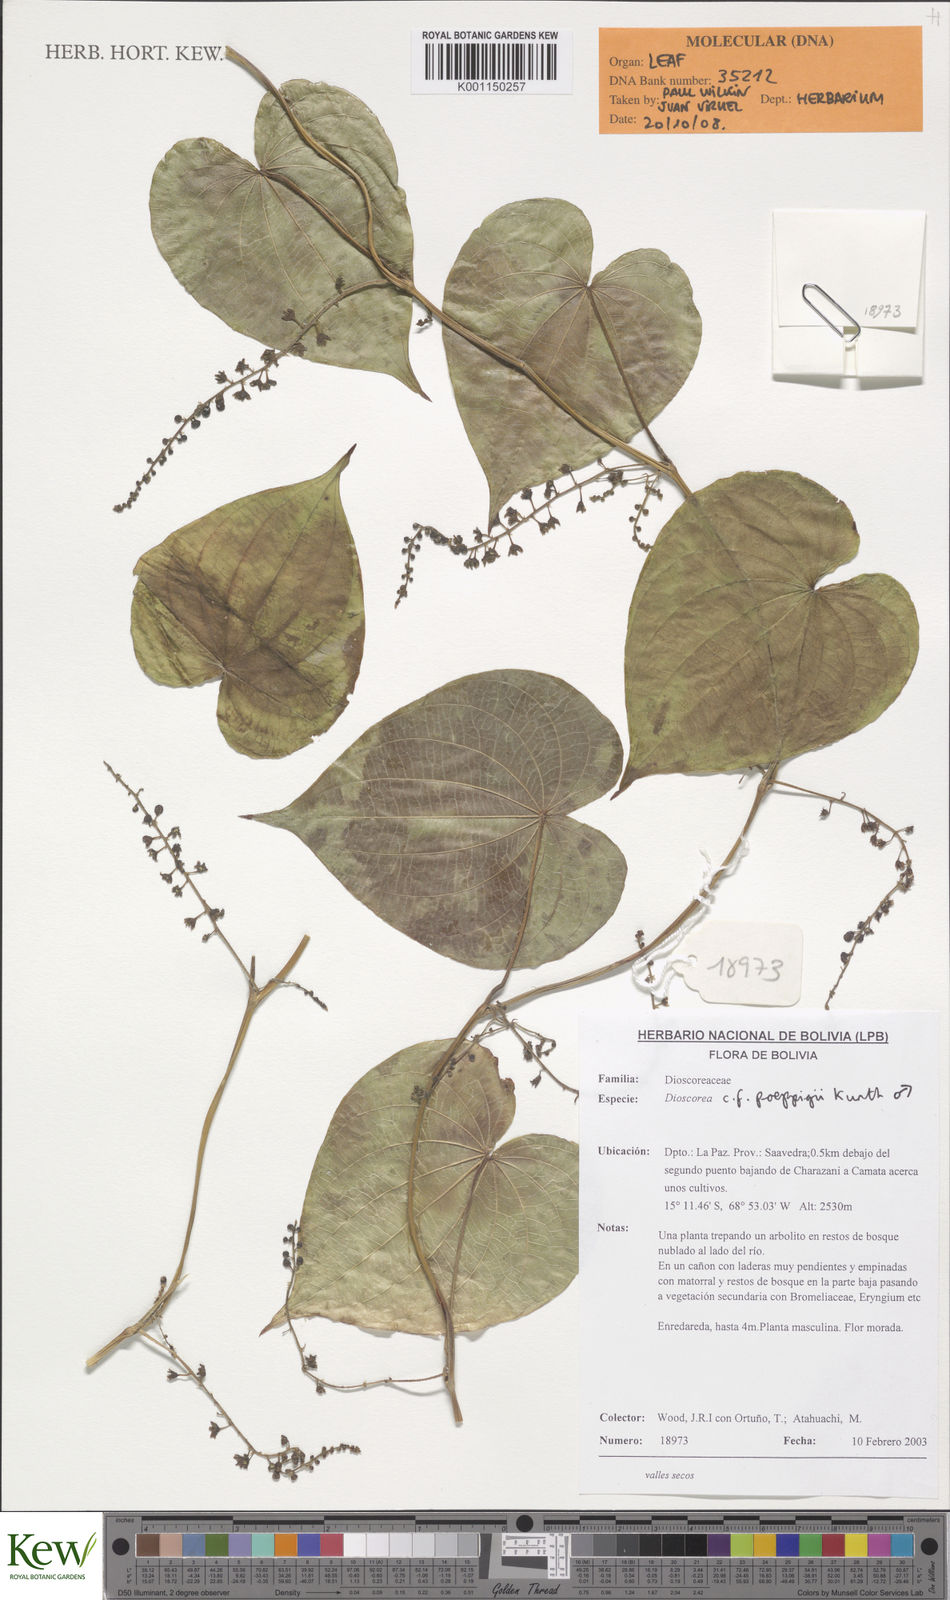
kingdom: Plantae
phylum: Tracheophyta
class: Liliopsida
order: Dioscoreales
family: Dioscoreaceae
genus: Dioscorea
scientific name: Dioscorea glandulosa
